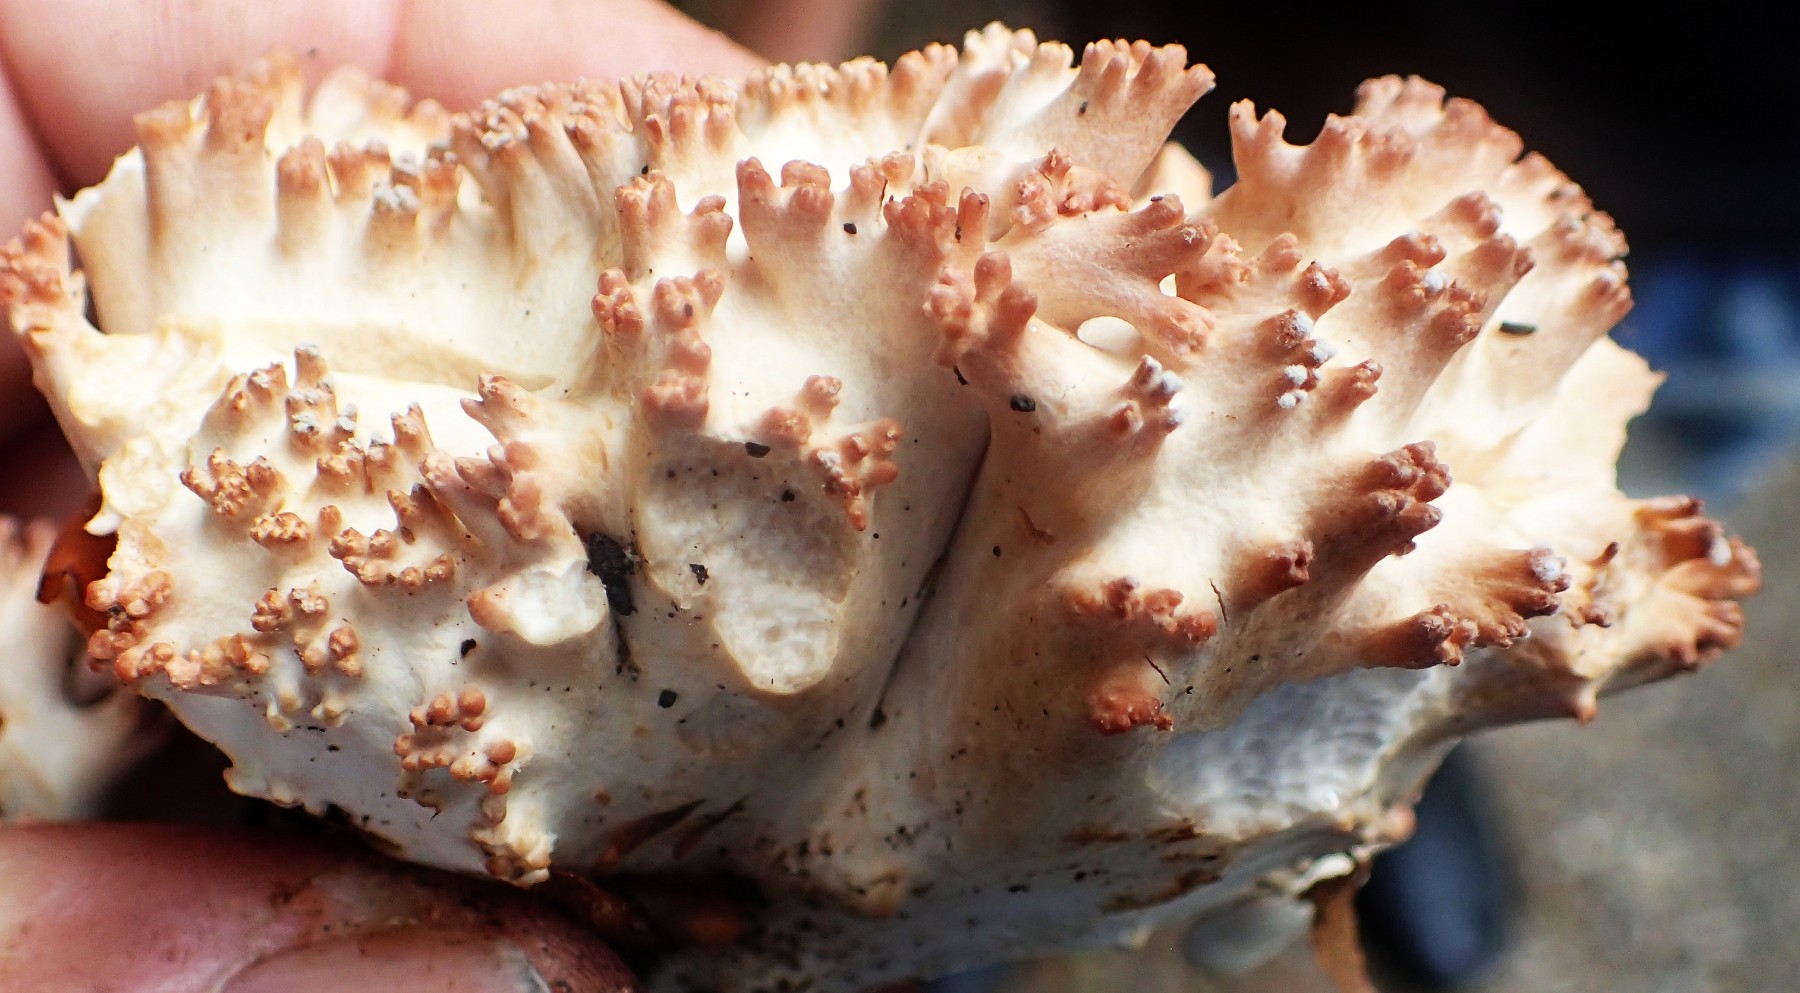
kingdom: Fungi
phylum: Basidiomycota
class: Agaricomycetes
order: Gomphales
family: Gomphaceae
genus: Ramaria
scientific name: Ramaria
